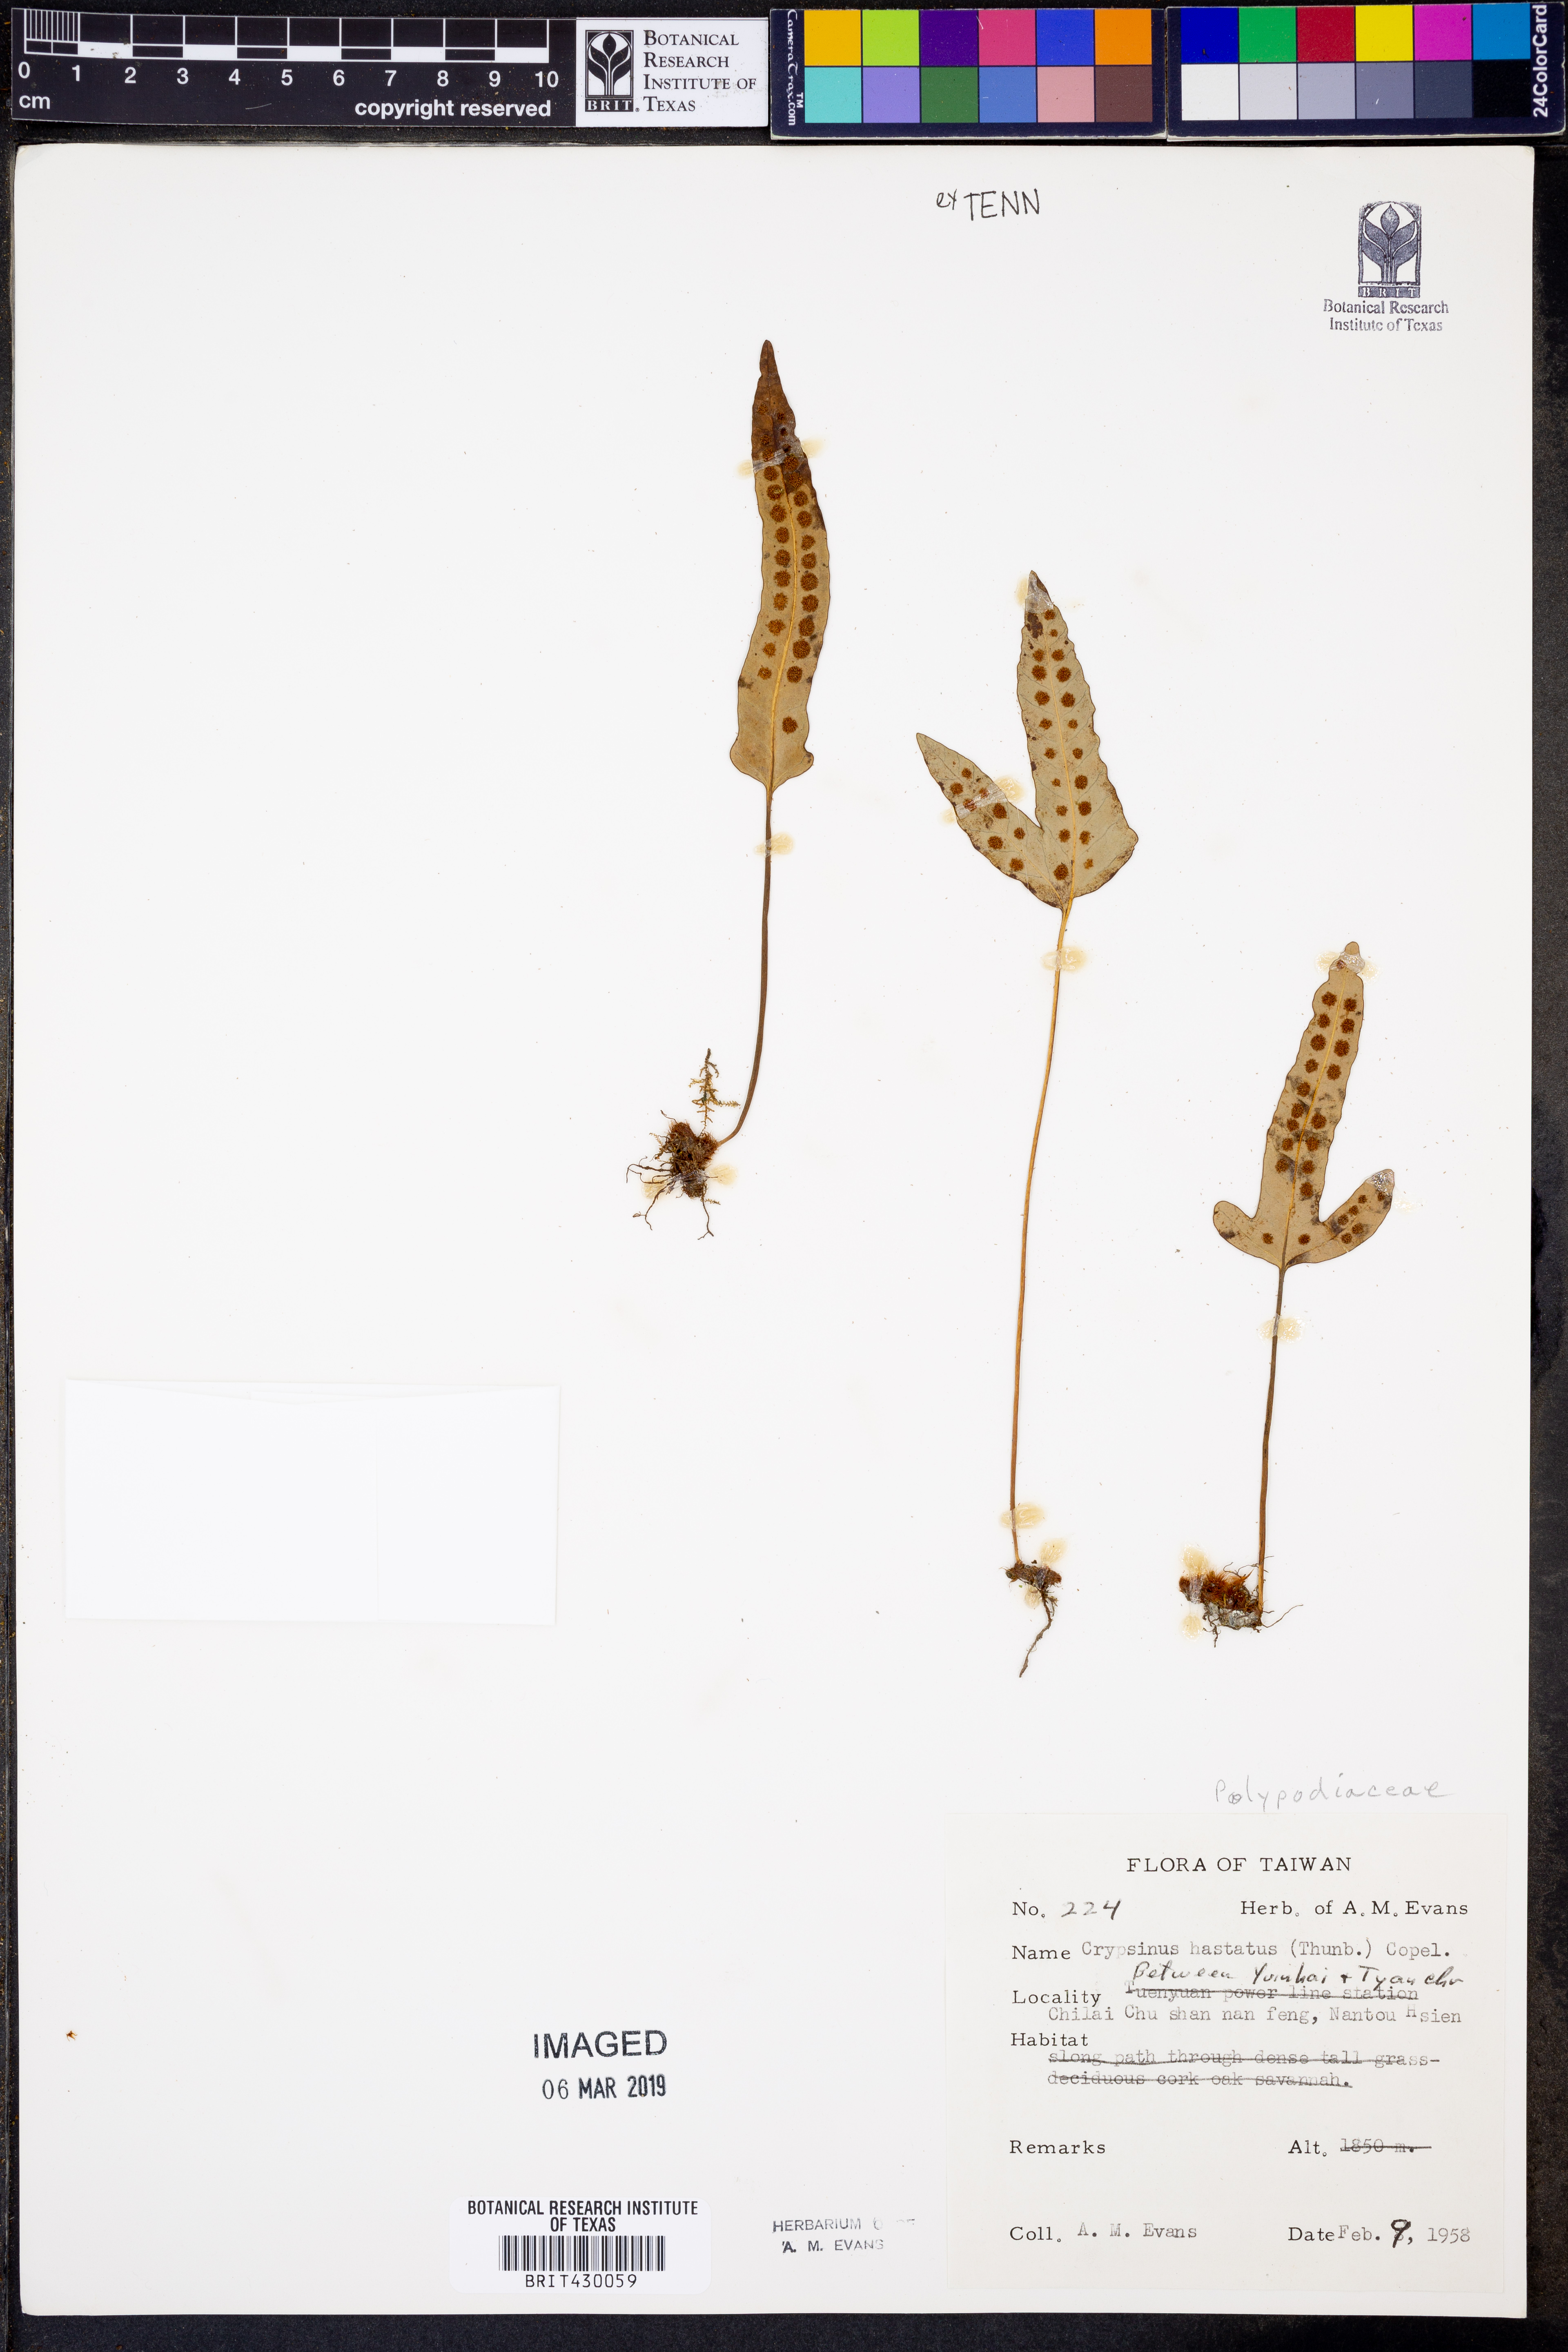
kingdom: Plantae
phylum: Tracheophyta
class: Polypodiopsida
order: Polypodiales
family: Polypodiaceae
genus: Selliguea
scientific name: Selliguea hastata
